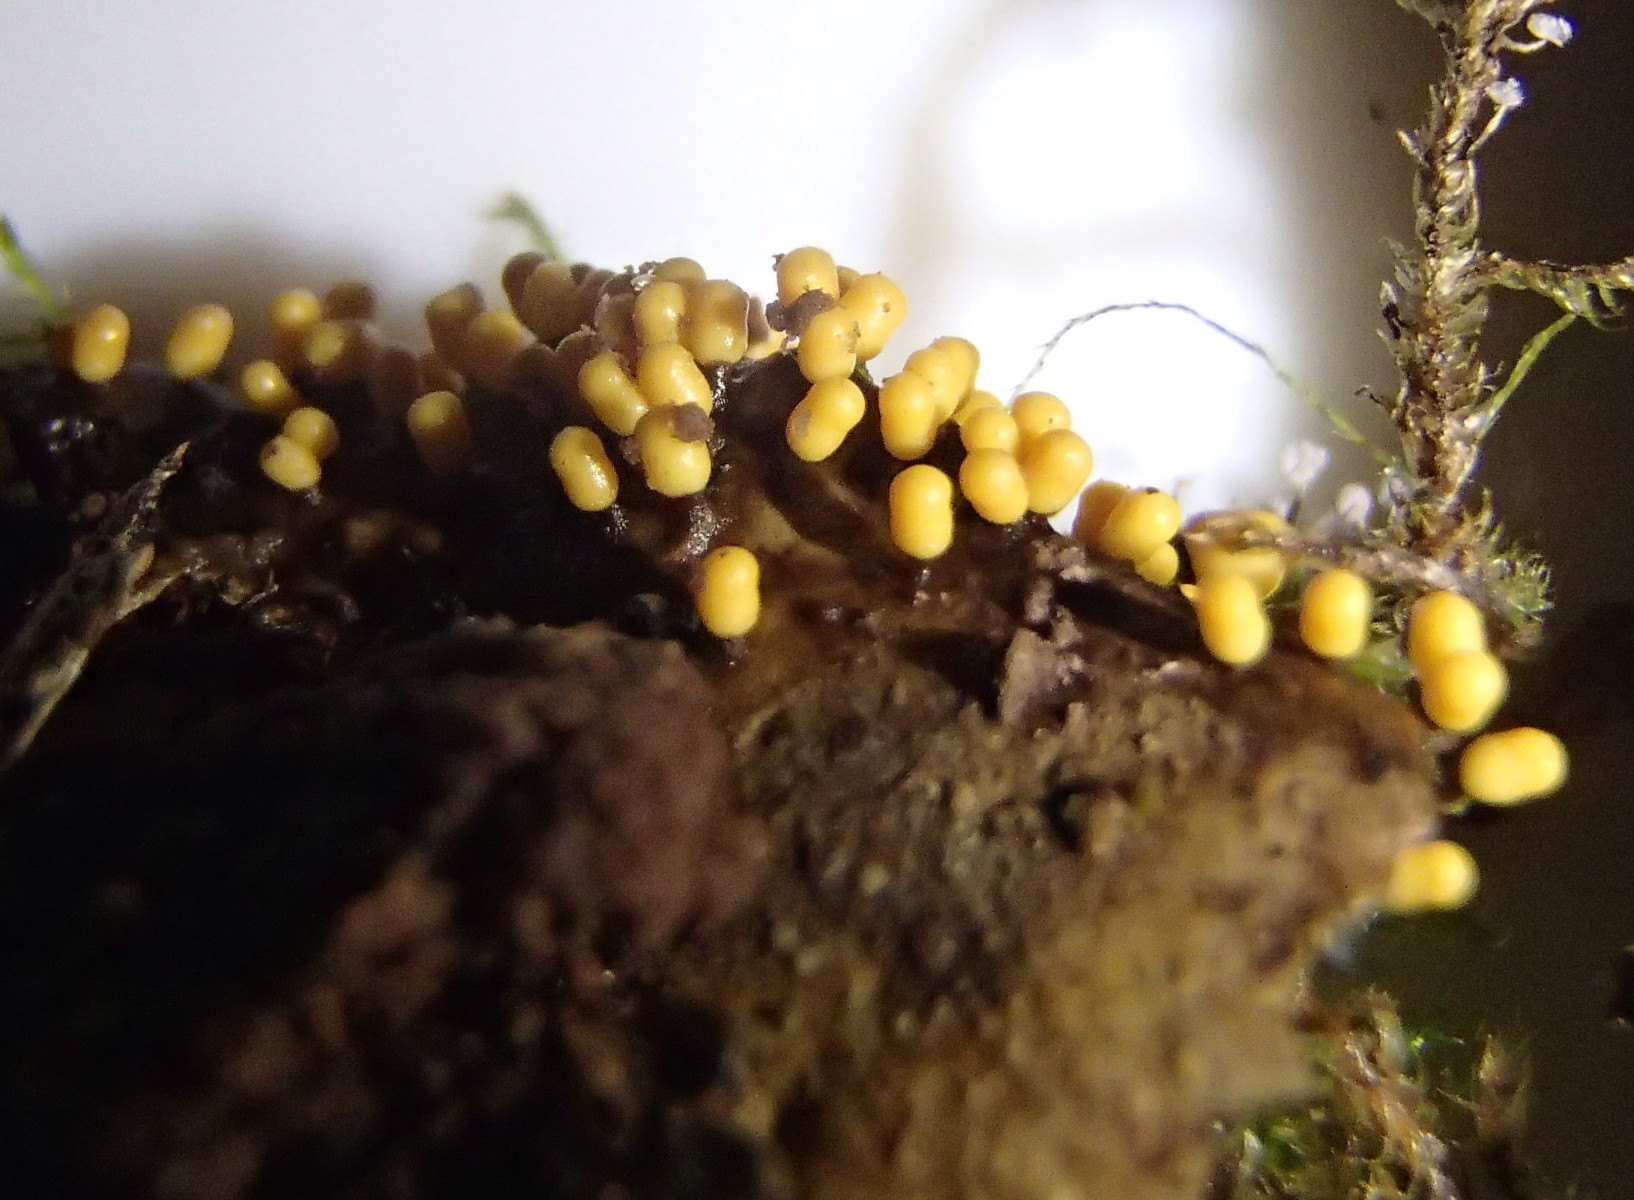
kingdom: Protozoa
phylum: Mycetozoa
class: Myxomycetes
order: Trichiales
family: Trichiaceae
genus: Trichia
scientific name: Trichia
